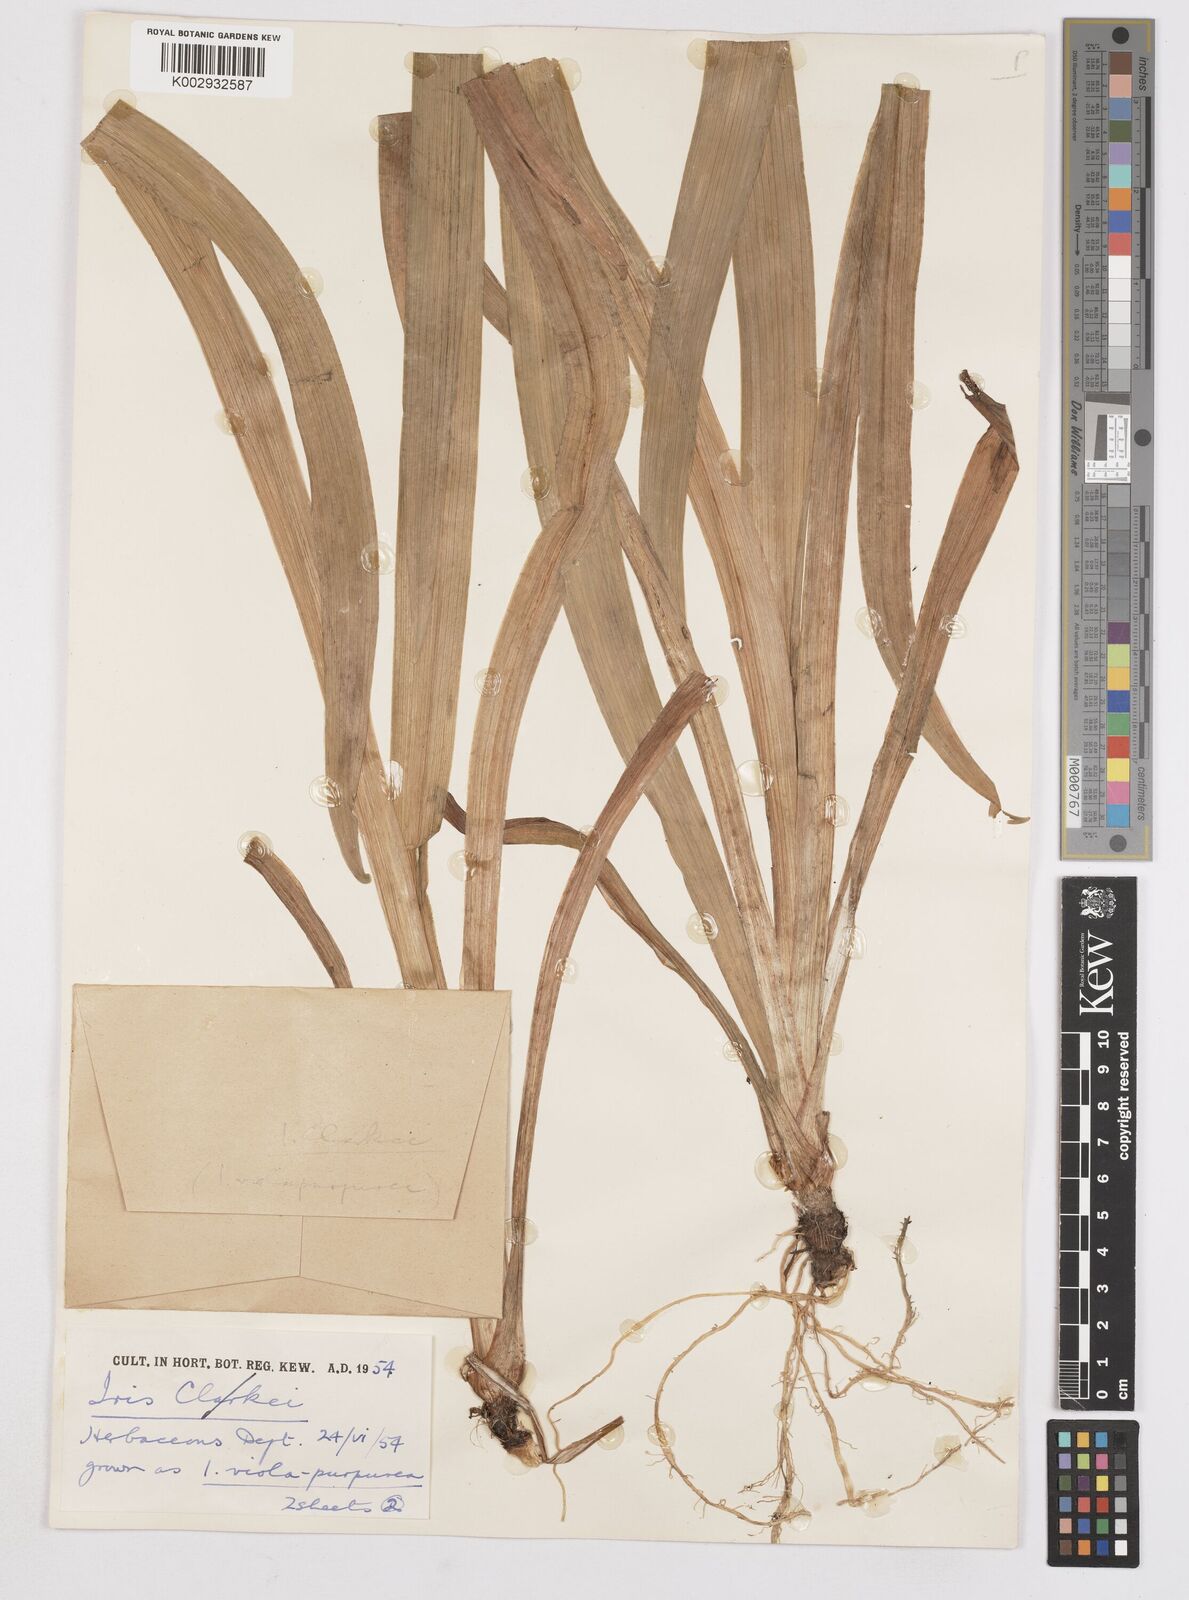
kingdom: Plantae
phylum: Tracheophyta
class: Liliopsida
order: Asparagales
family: Iridaceae
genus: Iris
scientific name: Iris clarkei
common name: Tibet iris
